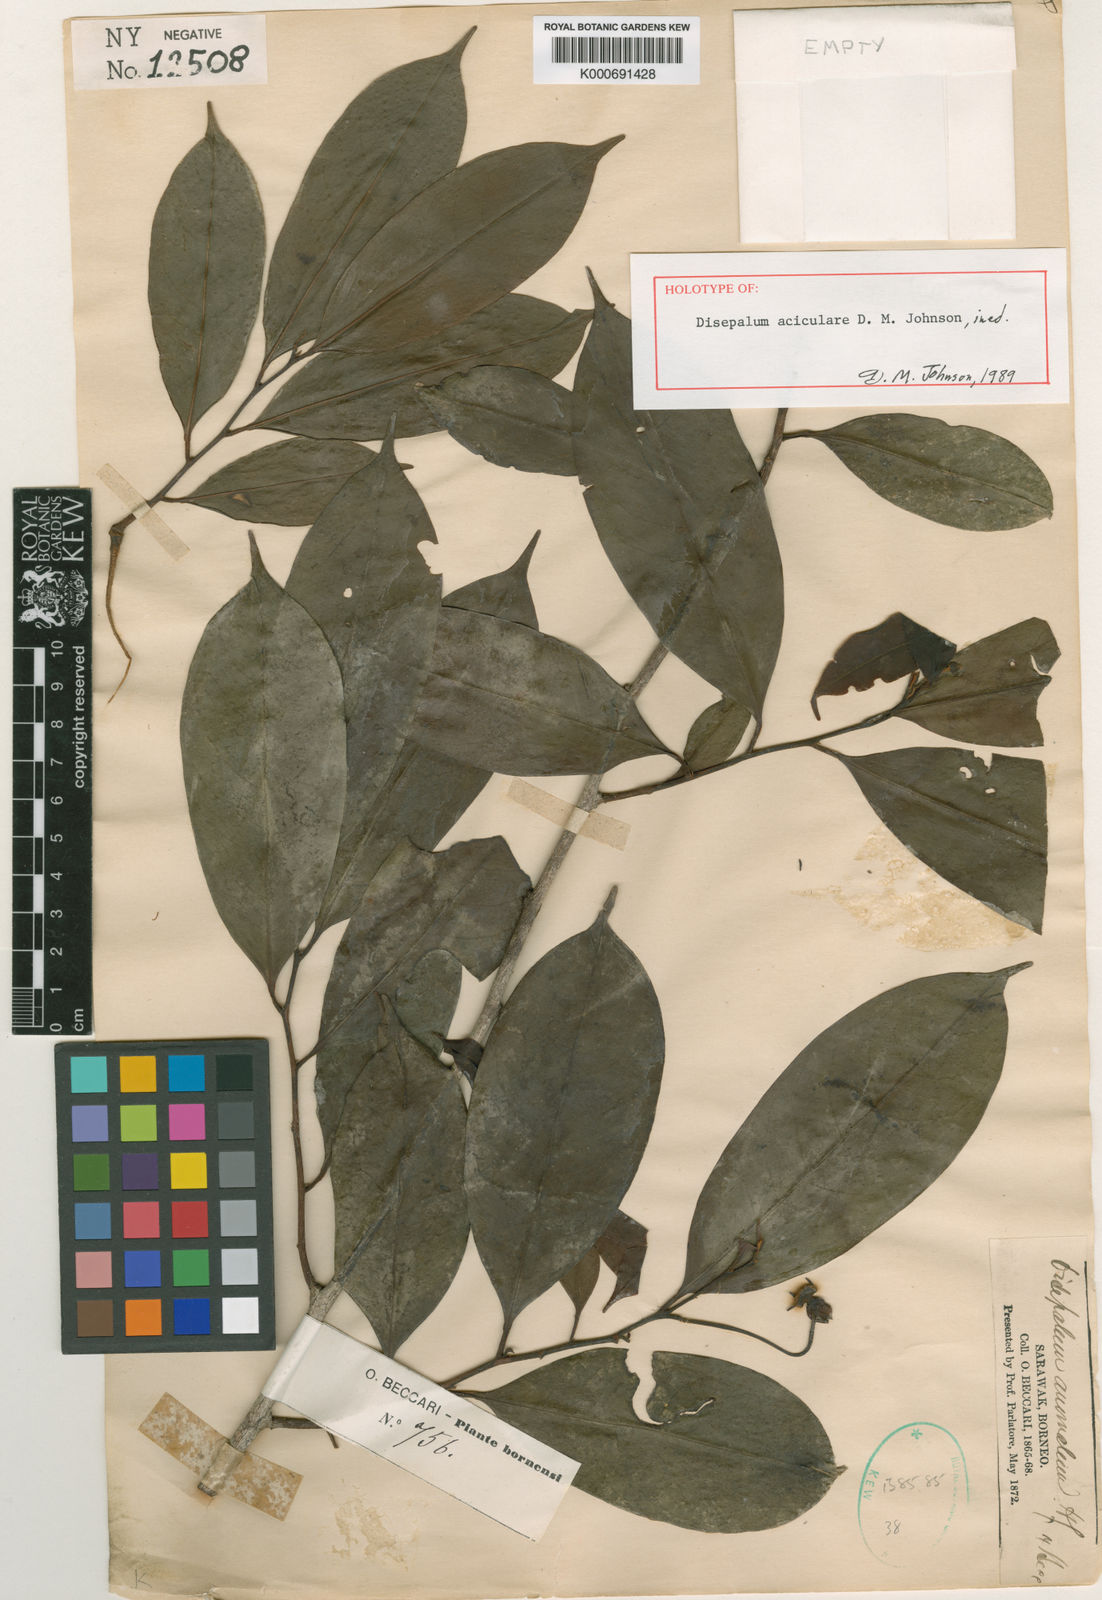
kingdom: Plantae
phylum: Tracheophyta
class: Magnoliopsida
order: Magnoliales
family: Annonaceae
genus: Disepalum
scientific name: Disepalum aciculare
